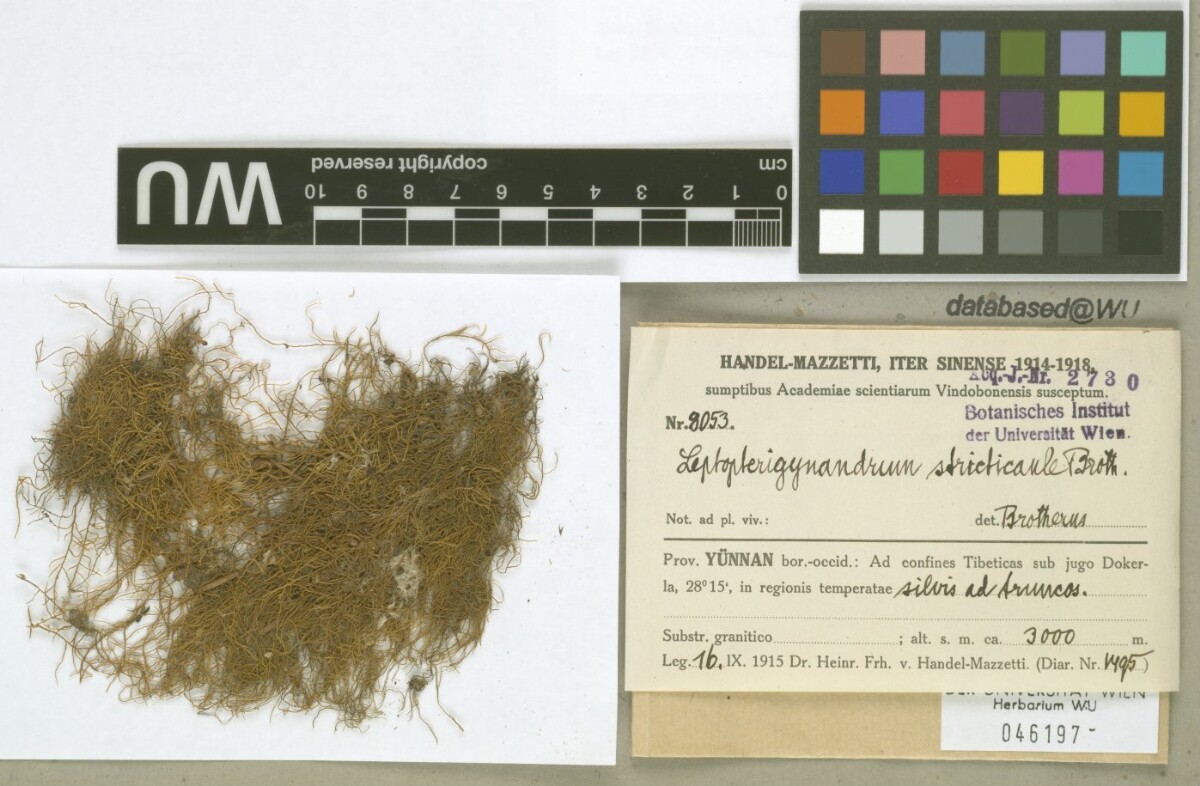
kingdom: Plantae
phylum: Bryophyta
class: Bryopsida
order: Hypnales
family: Taxiphyllaceae
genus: Leptopterigynandrum
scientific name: Leptopterigynandrum stricticaule
